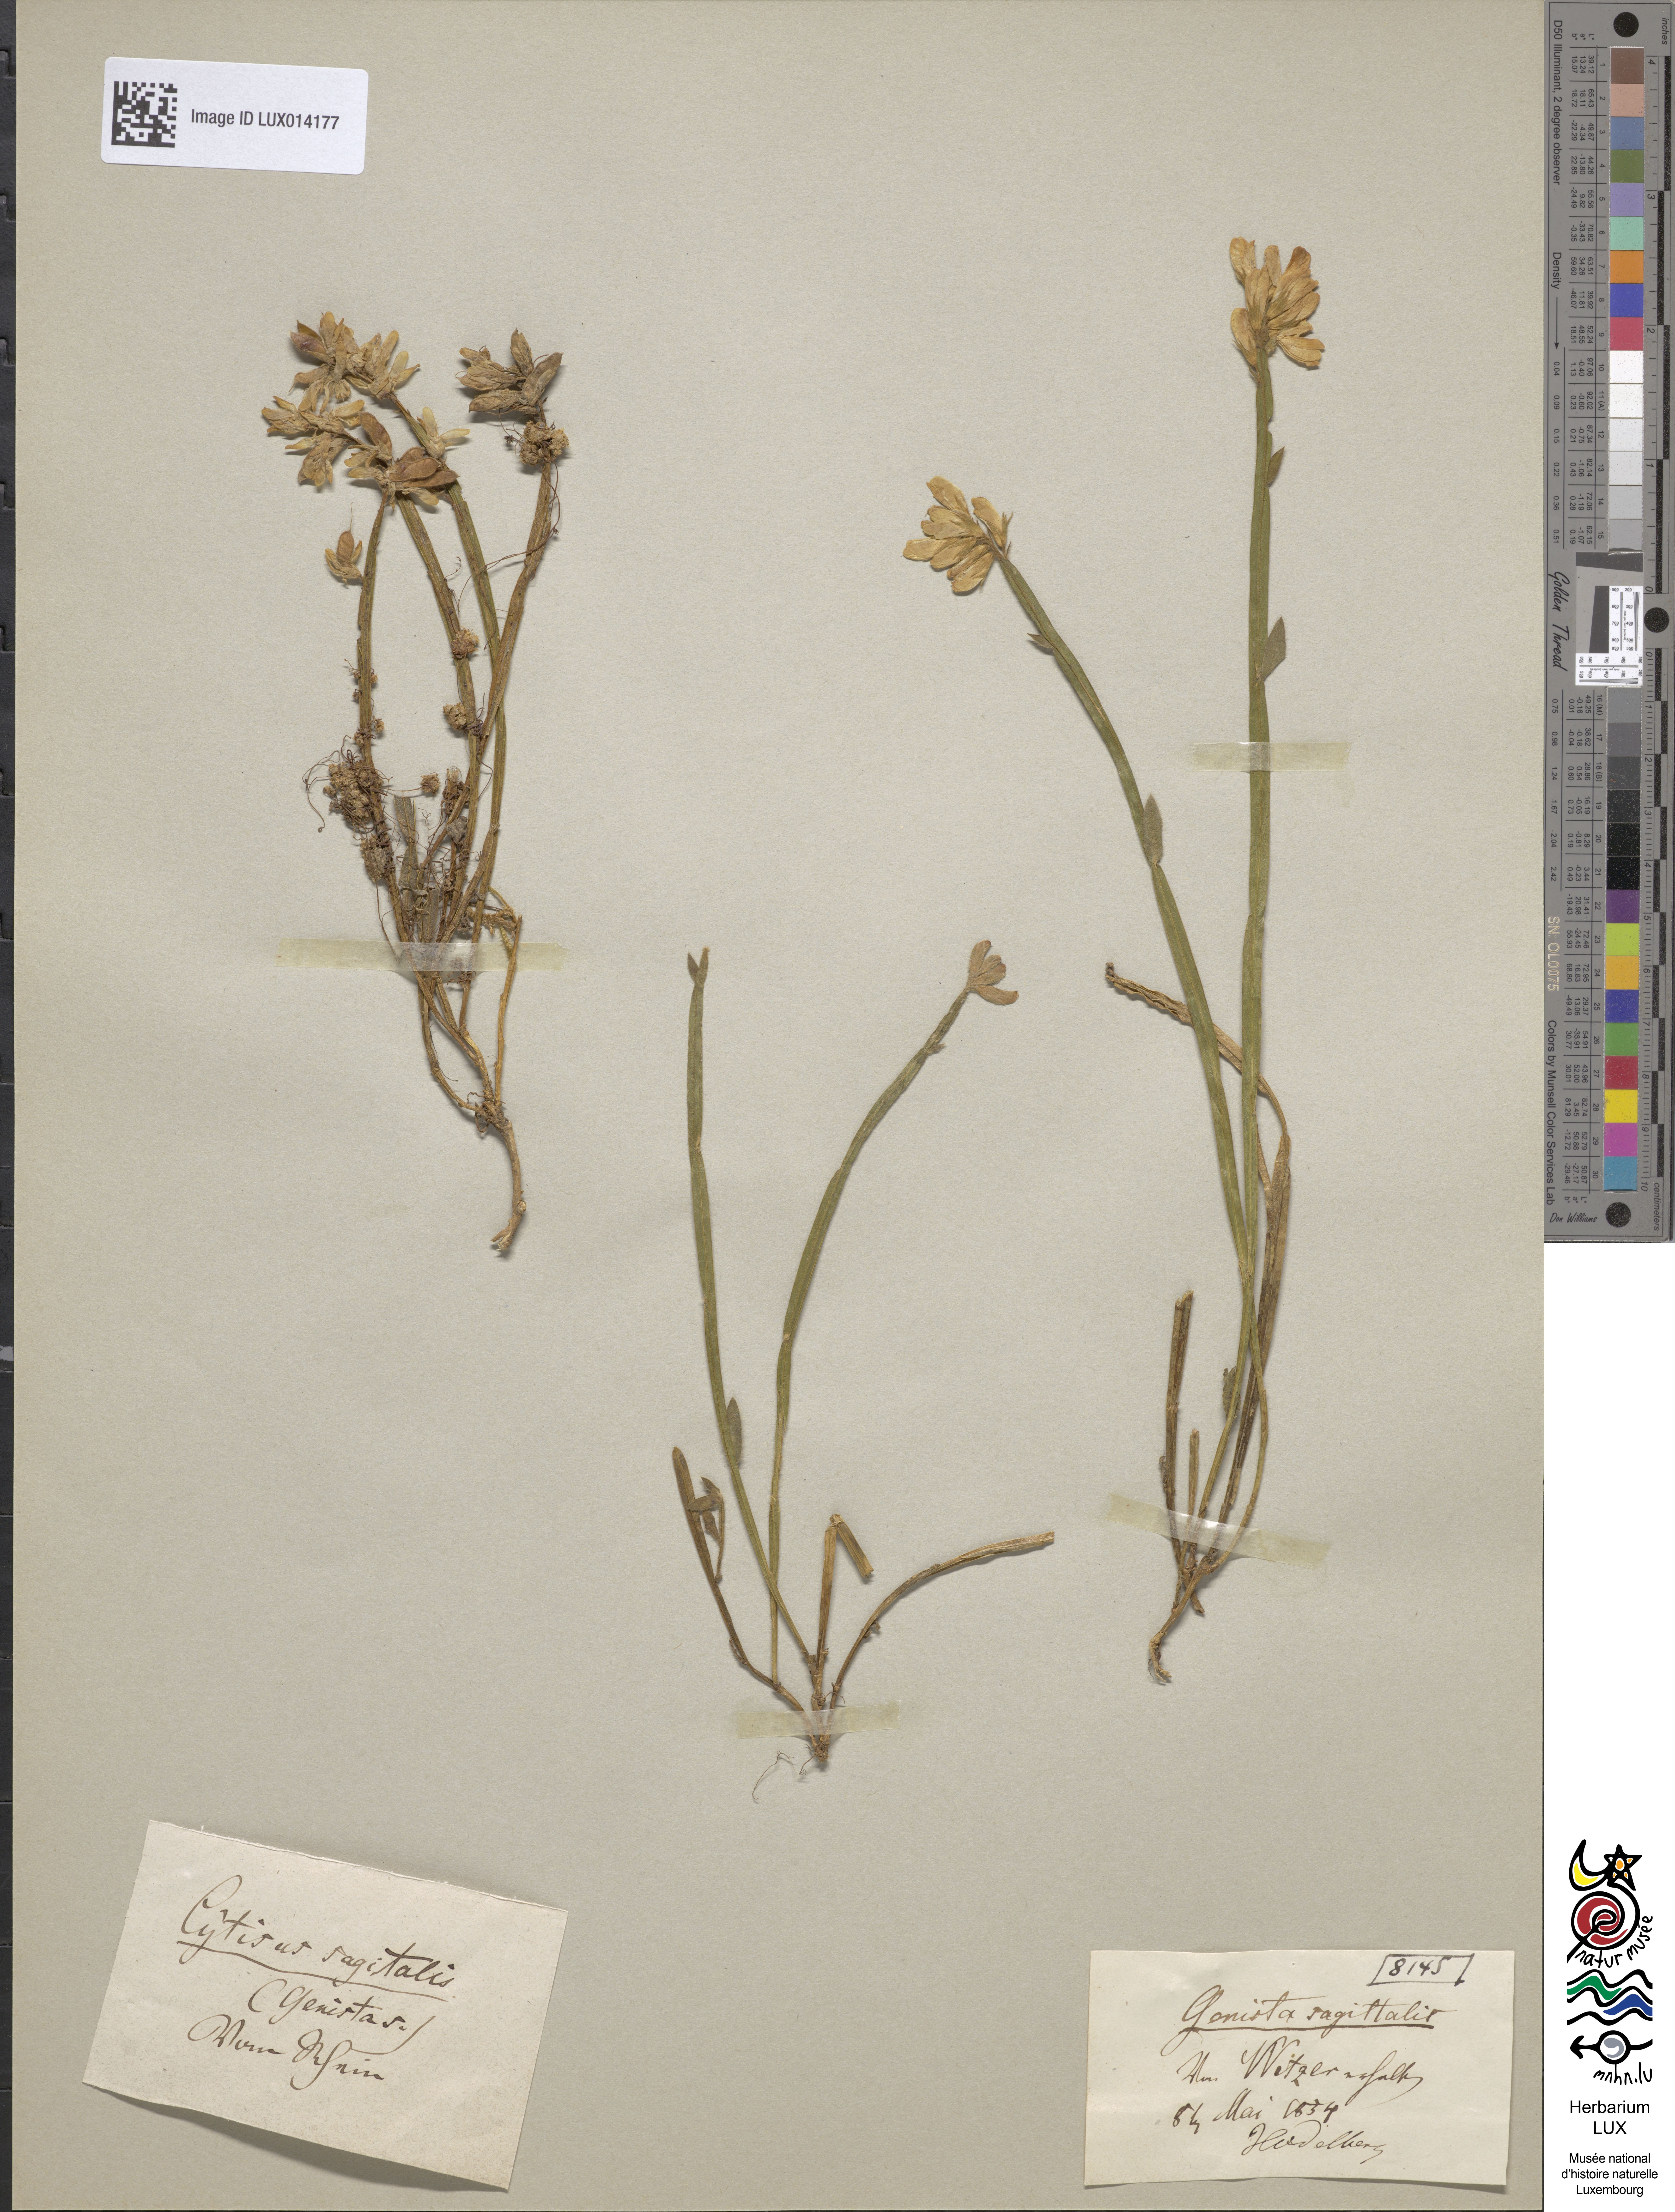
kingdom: Plantae
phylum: Tracheophyta
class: Magnoliopsida
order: Fabales
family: Fabaceae
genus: Genista
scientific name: Genista sagittalis
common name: Winged greenweed
